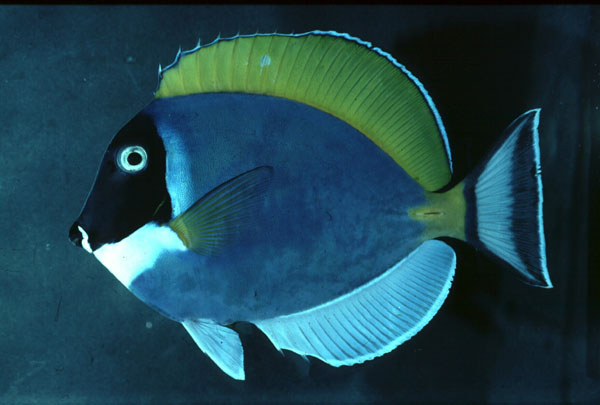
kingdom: Animalia
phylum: Chordata
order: Perciformes
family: Acanthuridae
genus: Acanthurus
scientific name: Acanthurus leucosternon
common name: Blue surgeonfish
